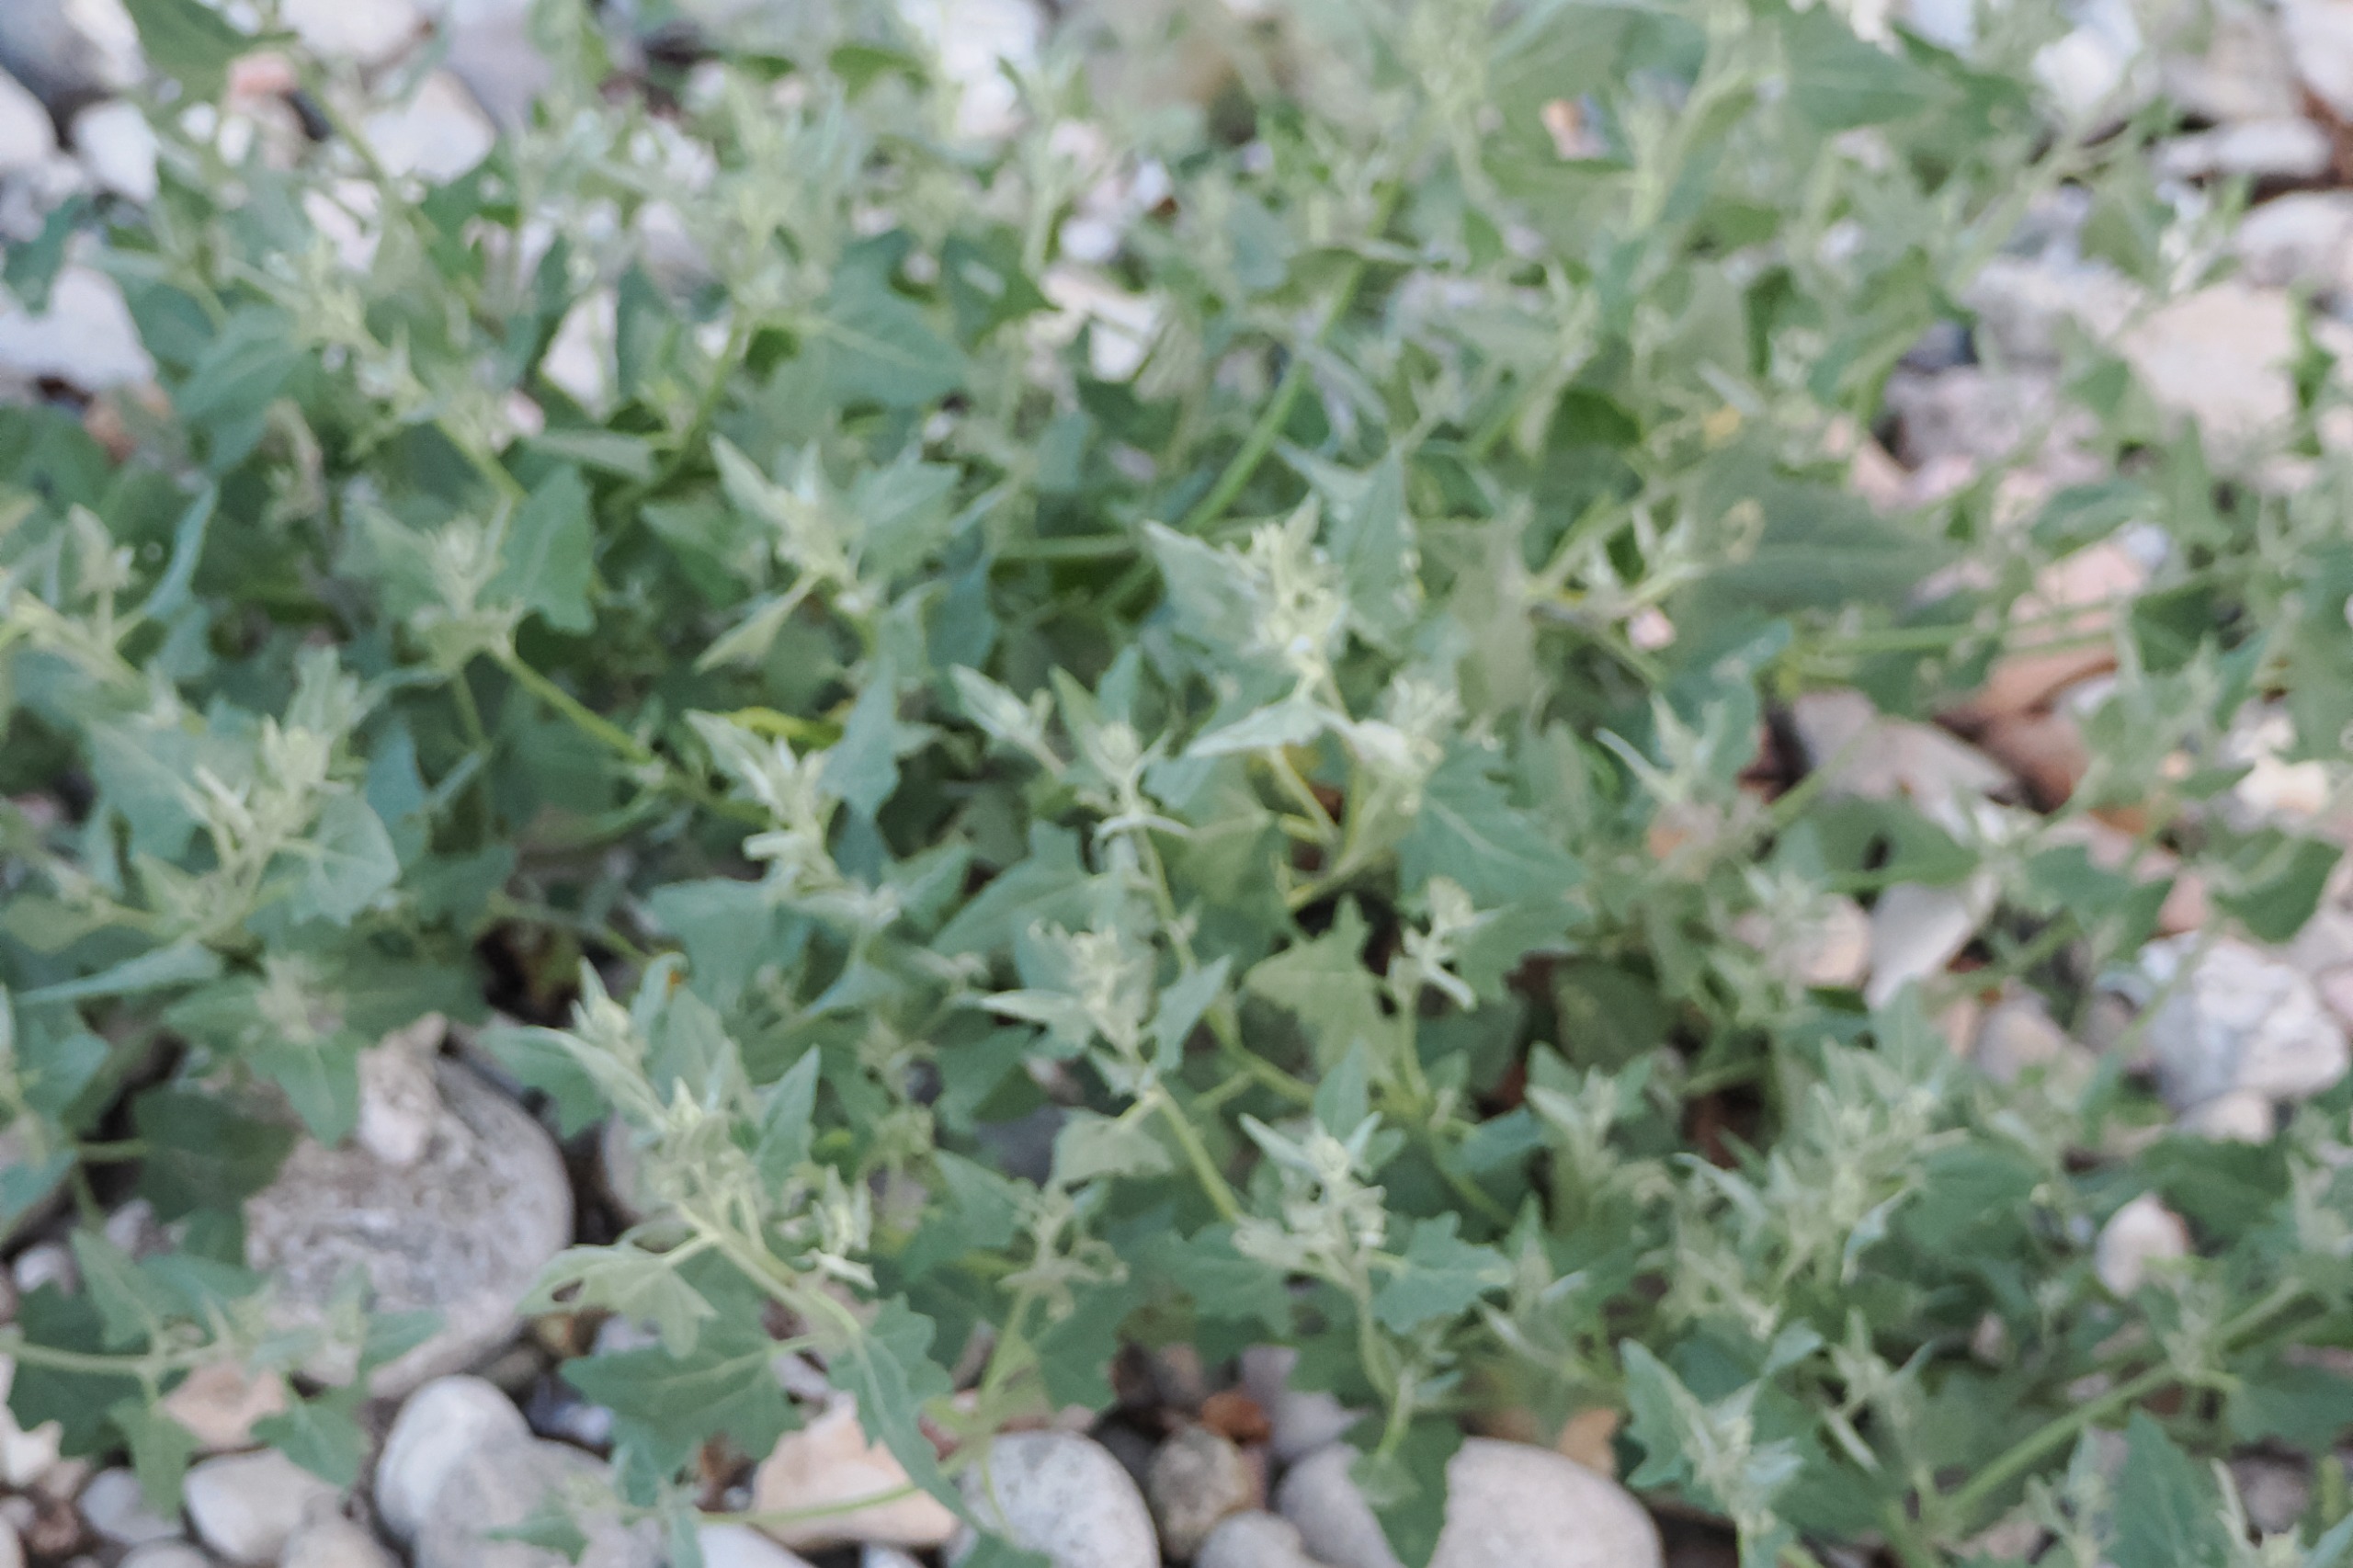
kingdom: Plantae
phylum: Tracheophyta
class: Magnoliopsida
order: Caryophyllales
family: Amaranthaceae
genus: Atriplex
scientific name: Atriplex prostrata
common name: Spyd-mælde
